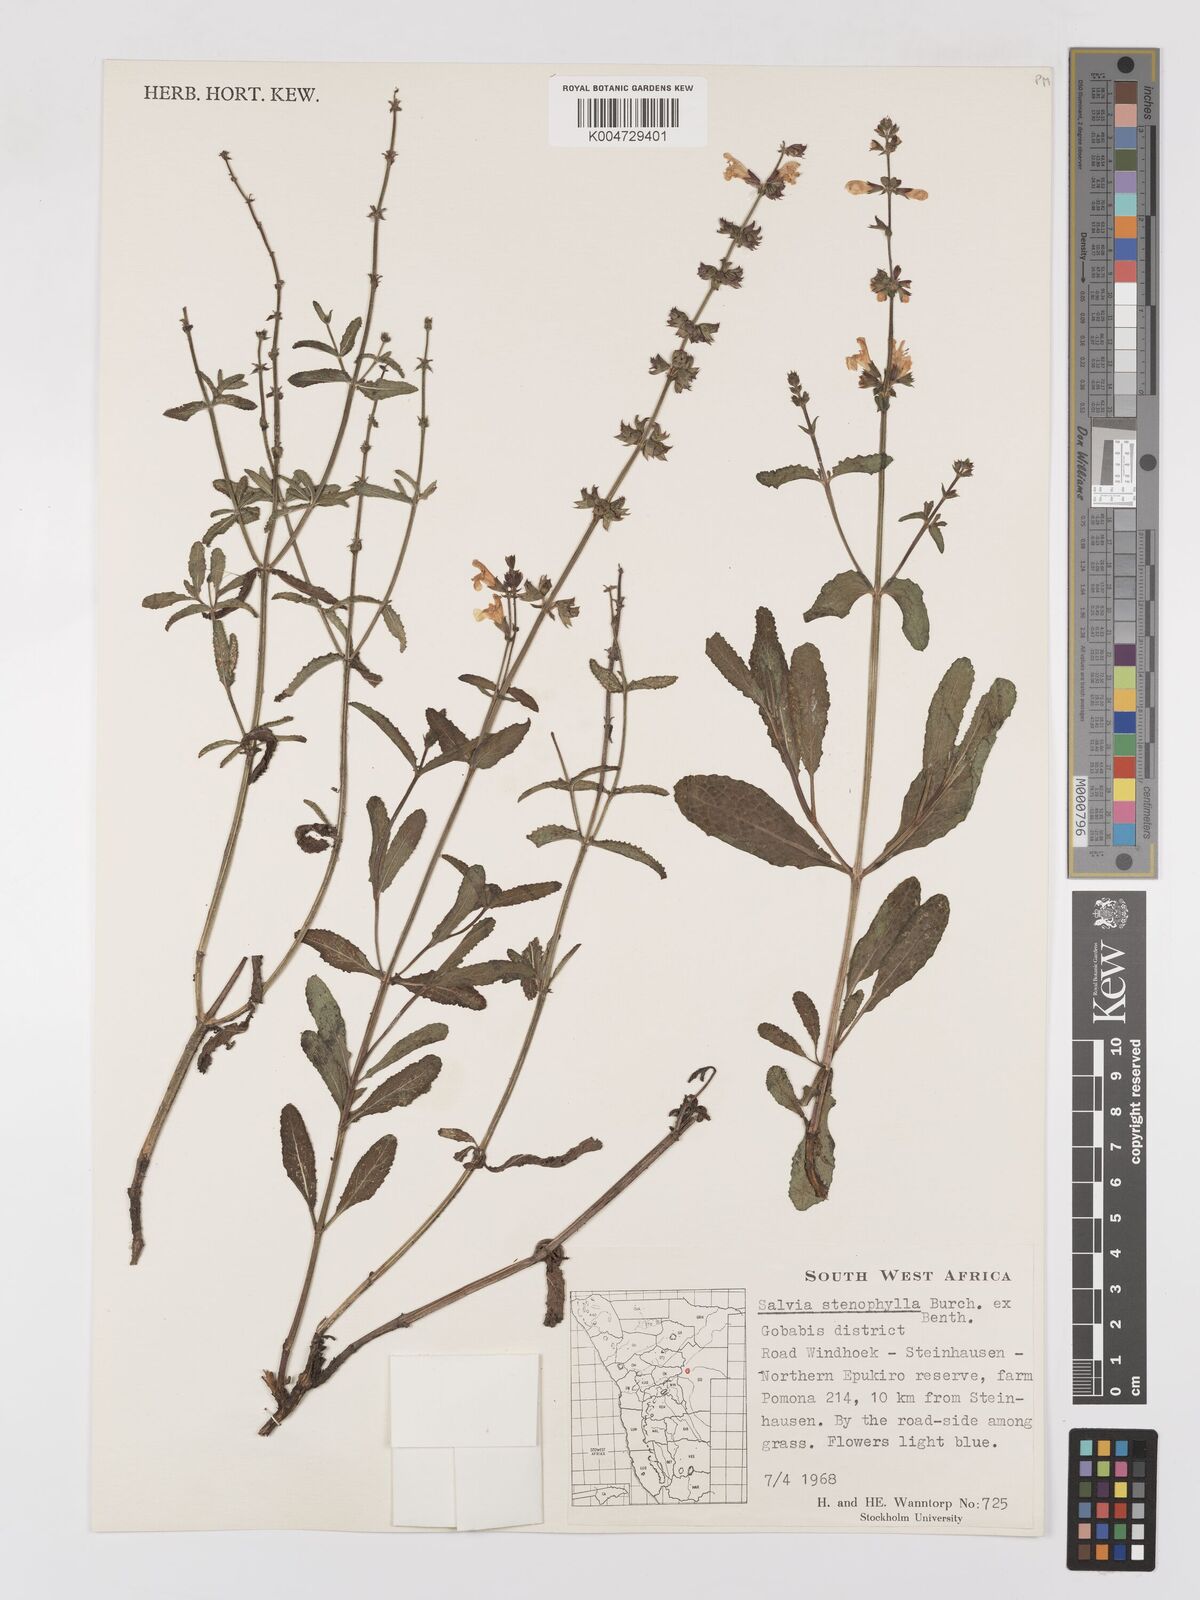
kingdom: Plantae
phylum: Tracheophyta
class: Magnoliopsida
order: Lamiales
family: Lamiaceae
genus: Salvia
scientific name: Salvia stenophylla
